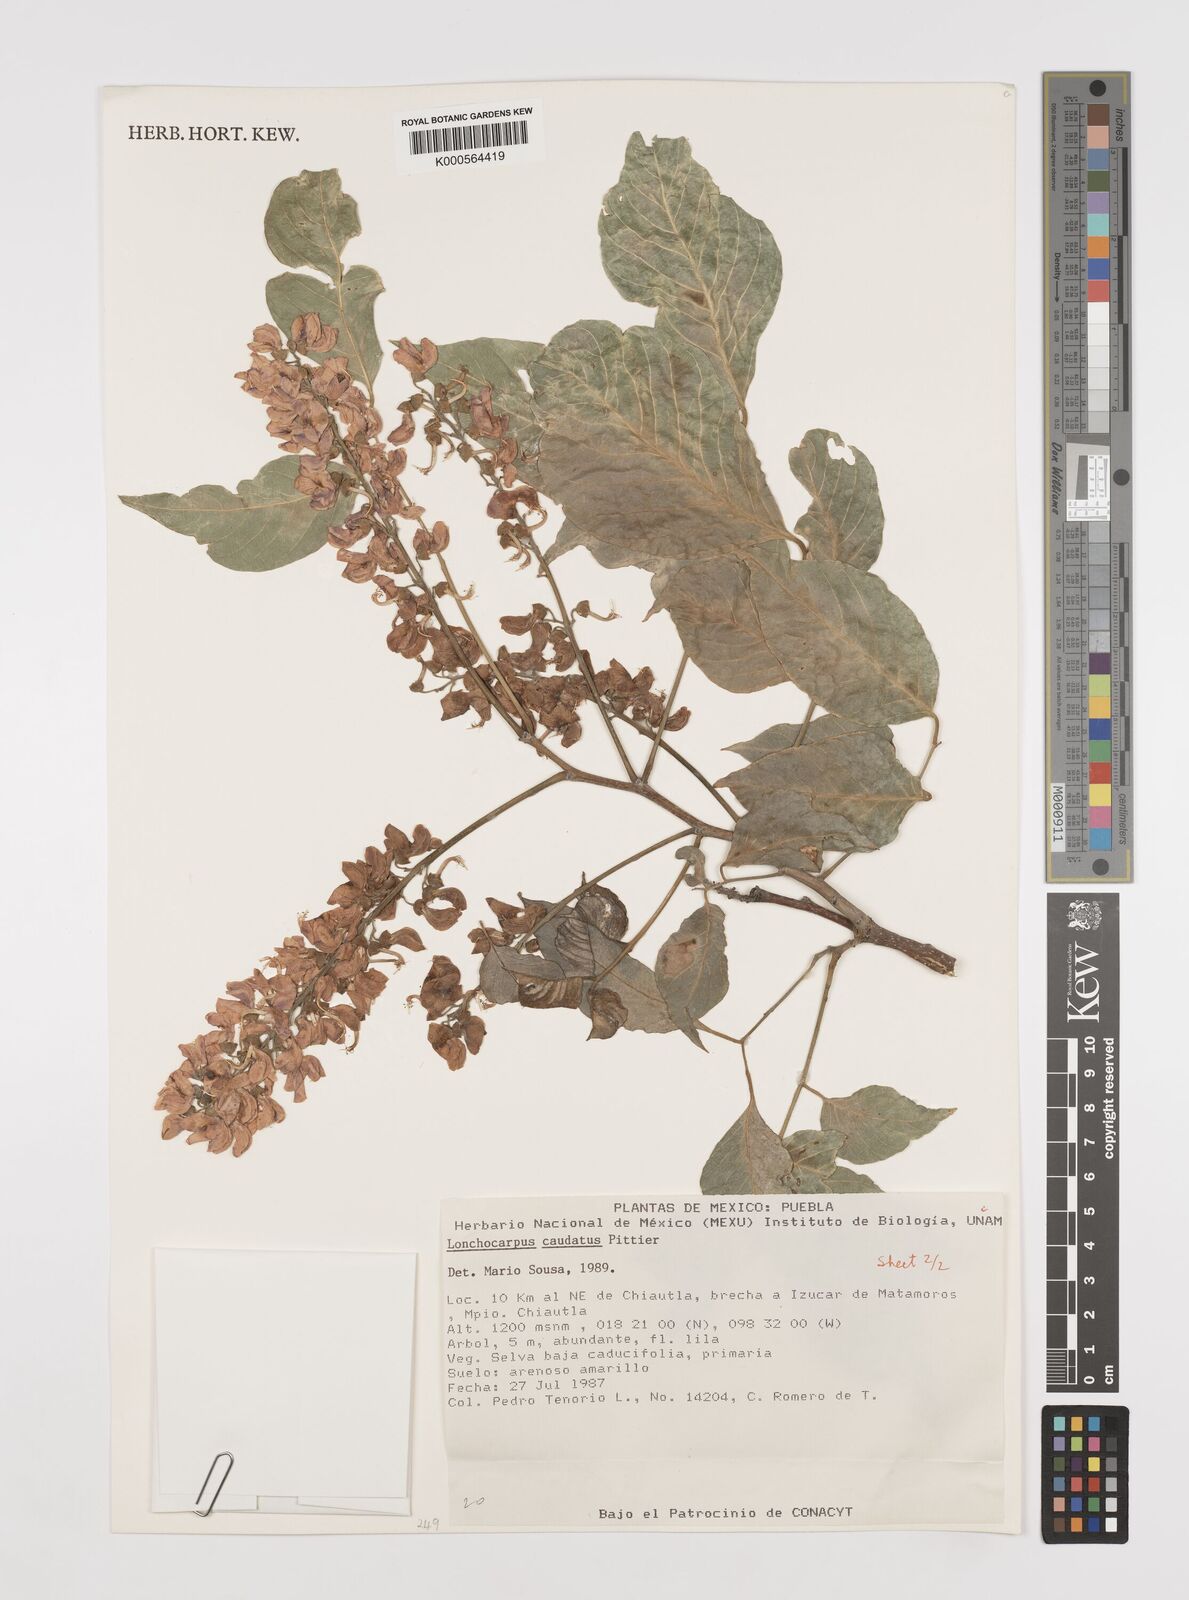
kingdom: Plantae
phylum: Tracheophyta
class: Magnoliopsida
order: Fabales
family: Fabaceae
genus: Lonchocarpus
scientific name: Lonchocarpus caudatus
